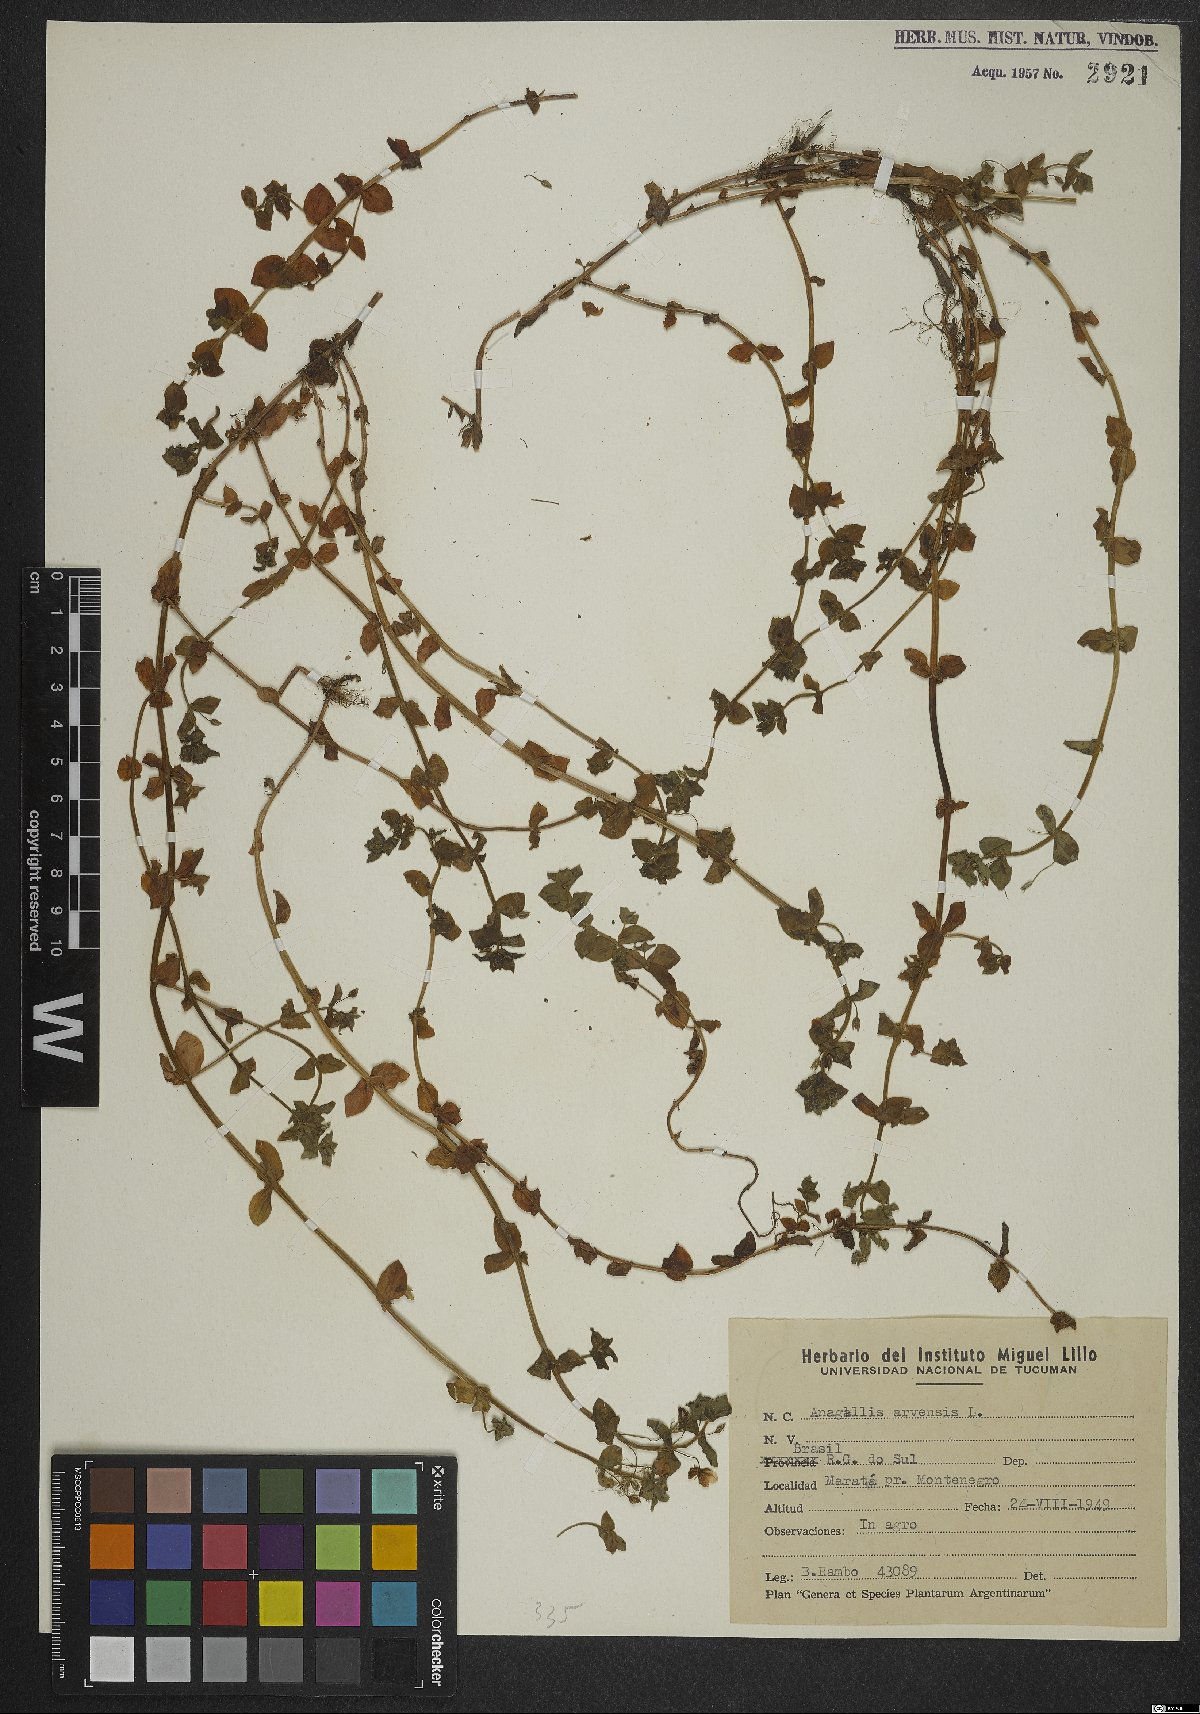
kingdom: Plantae
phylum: Tracheophyta
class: Magnoliopsida
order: Ericales
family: Primulaceae
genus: Lysimachia
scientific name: Lysimachia arvensis
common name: Scarlet pimpernel
